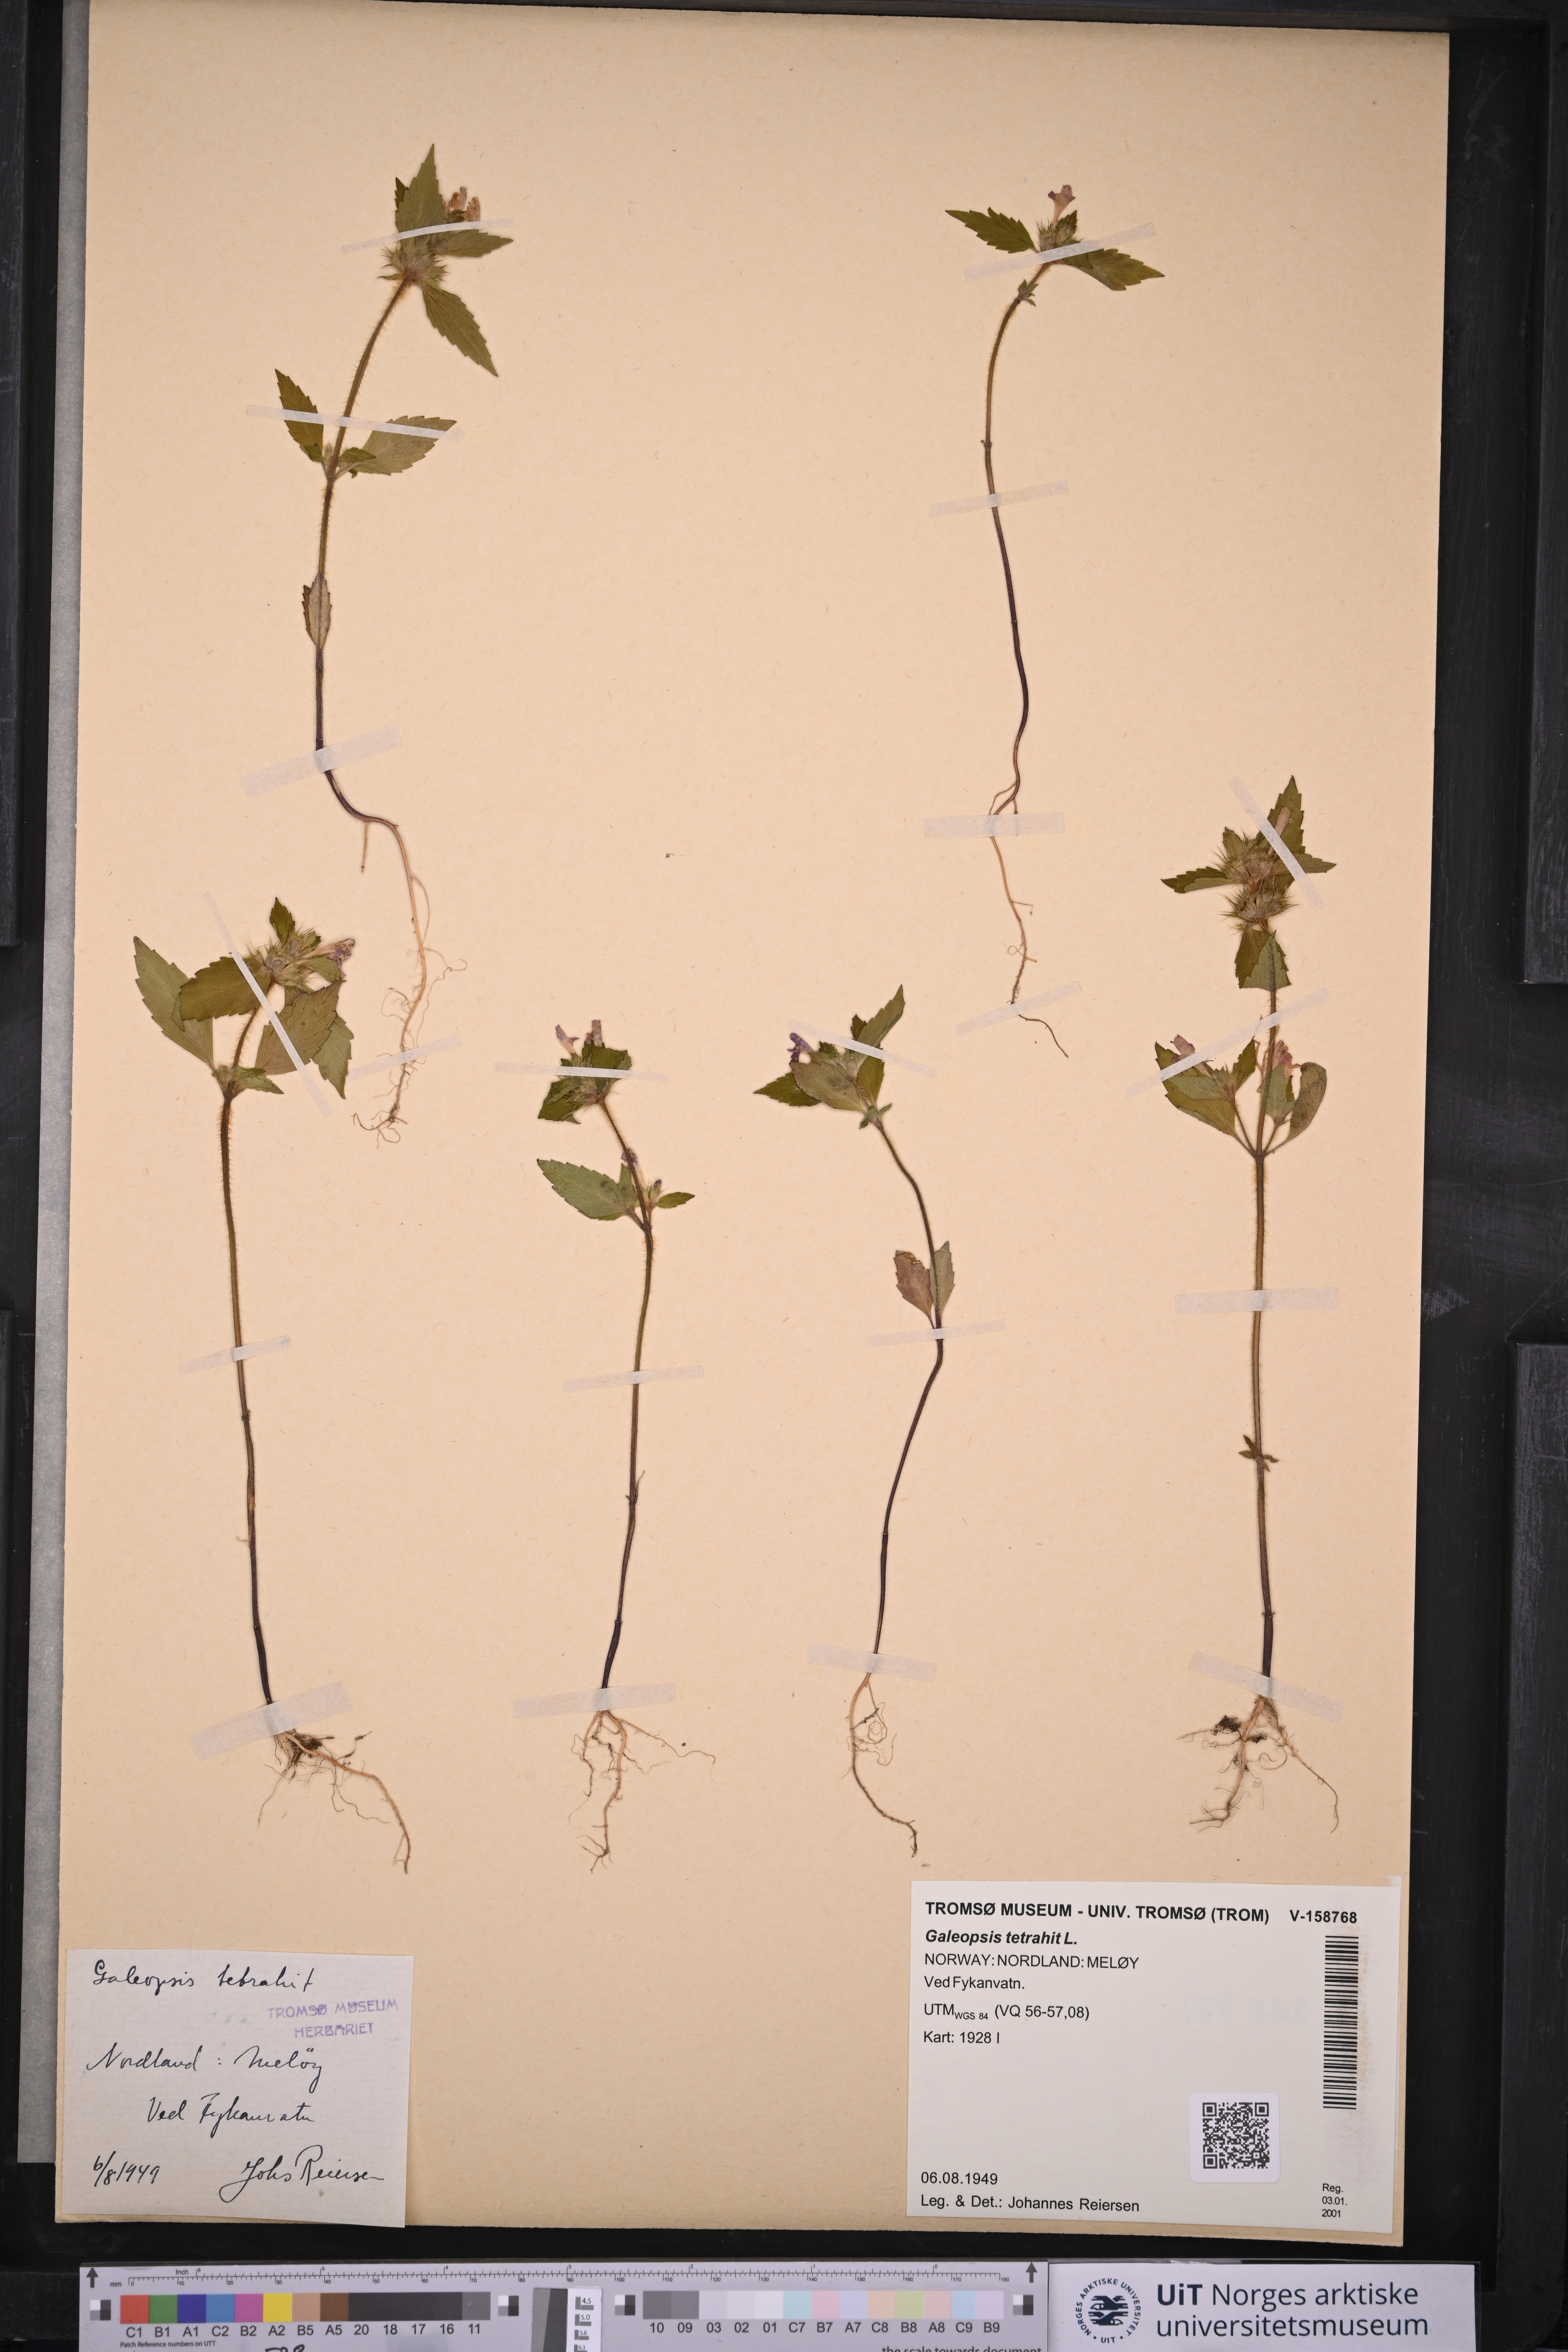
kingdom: Plantae
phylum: Tracheophyta
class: Magnoliopsida
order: Lamiales
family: Lamiaceae
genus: Galeopsis
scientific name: Galeopsis tetrahit
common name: Common hemp-nettle
